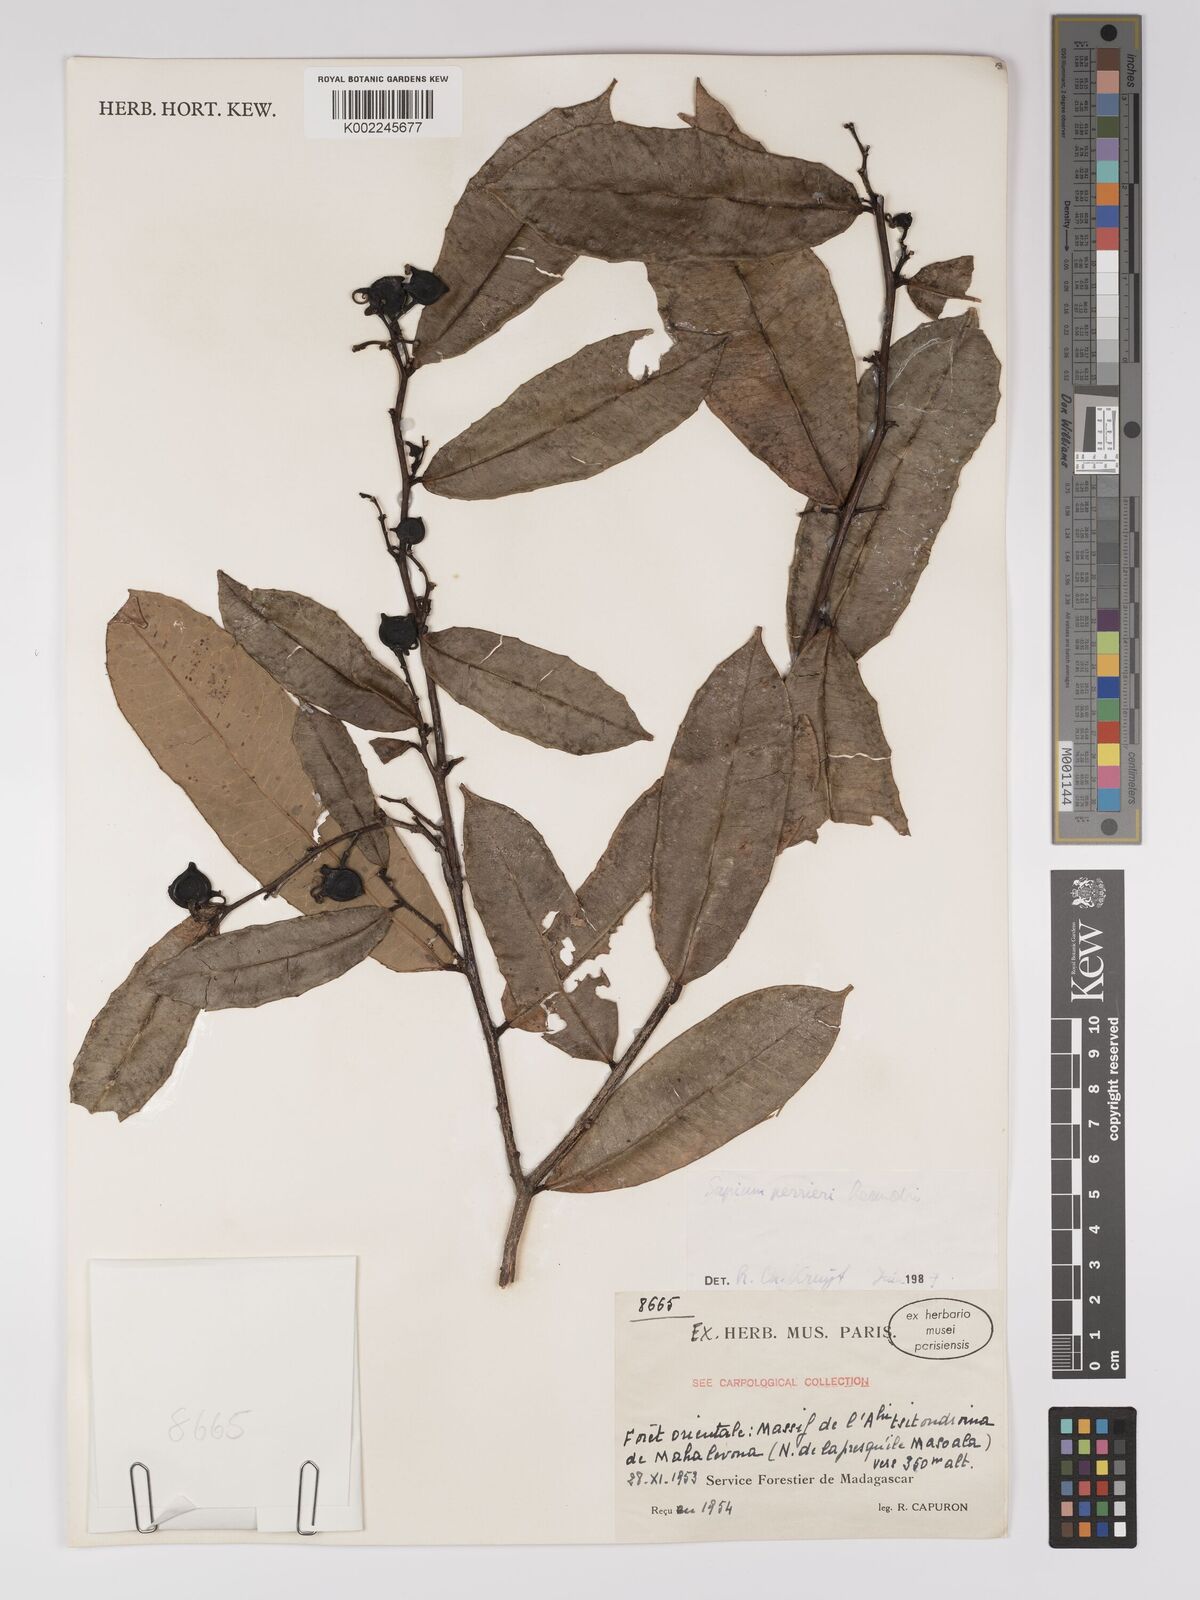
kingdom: Plantae
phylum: Tracheophyta
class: Magnoliopsida
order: Malpighiales
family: Euphorbiaceae
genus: Anomostachys
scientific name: Anomostachys lastellei
